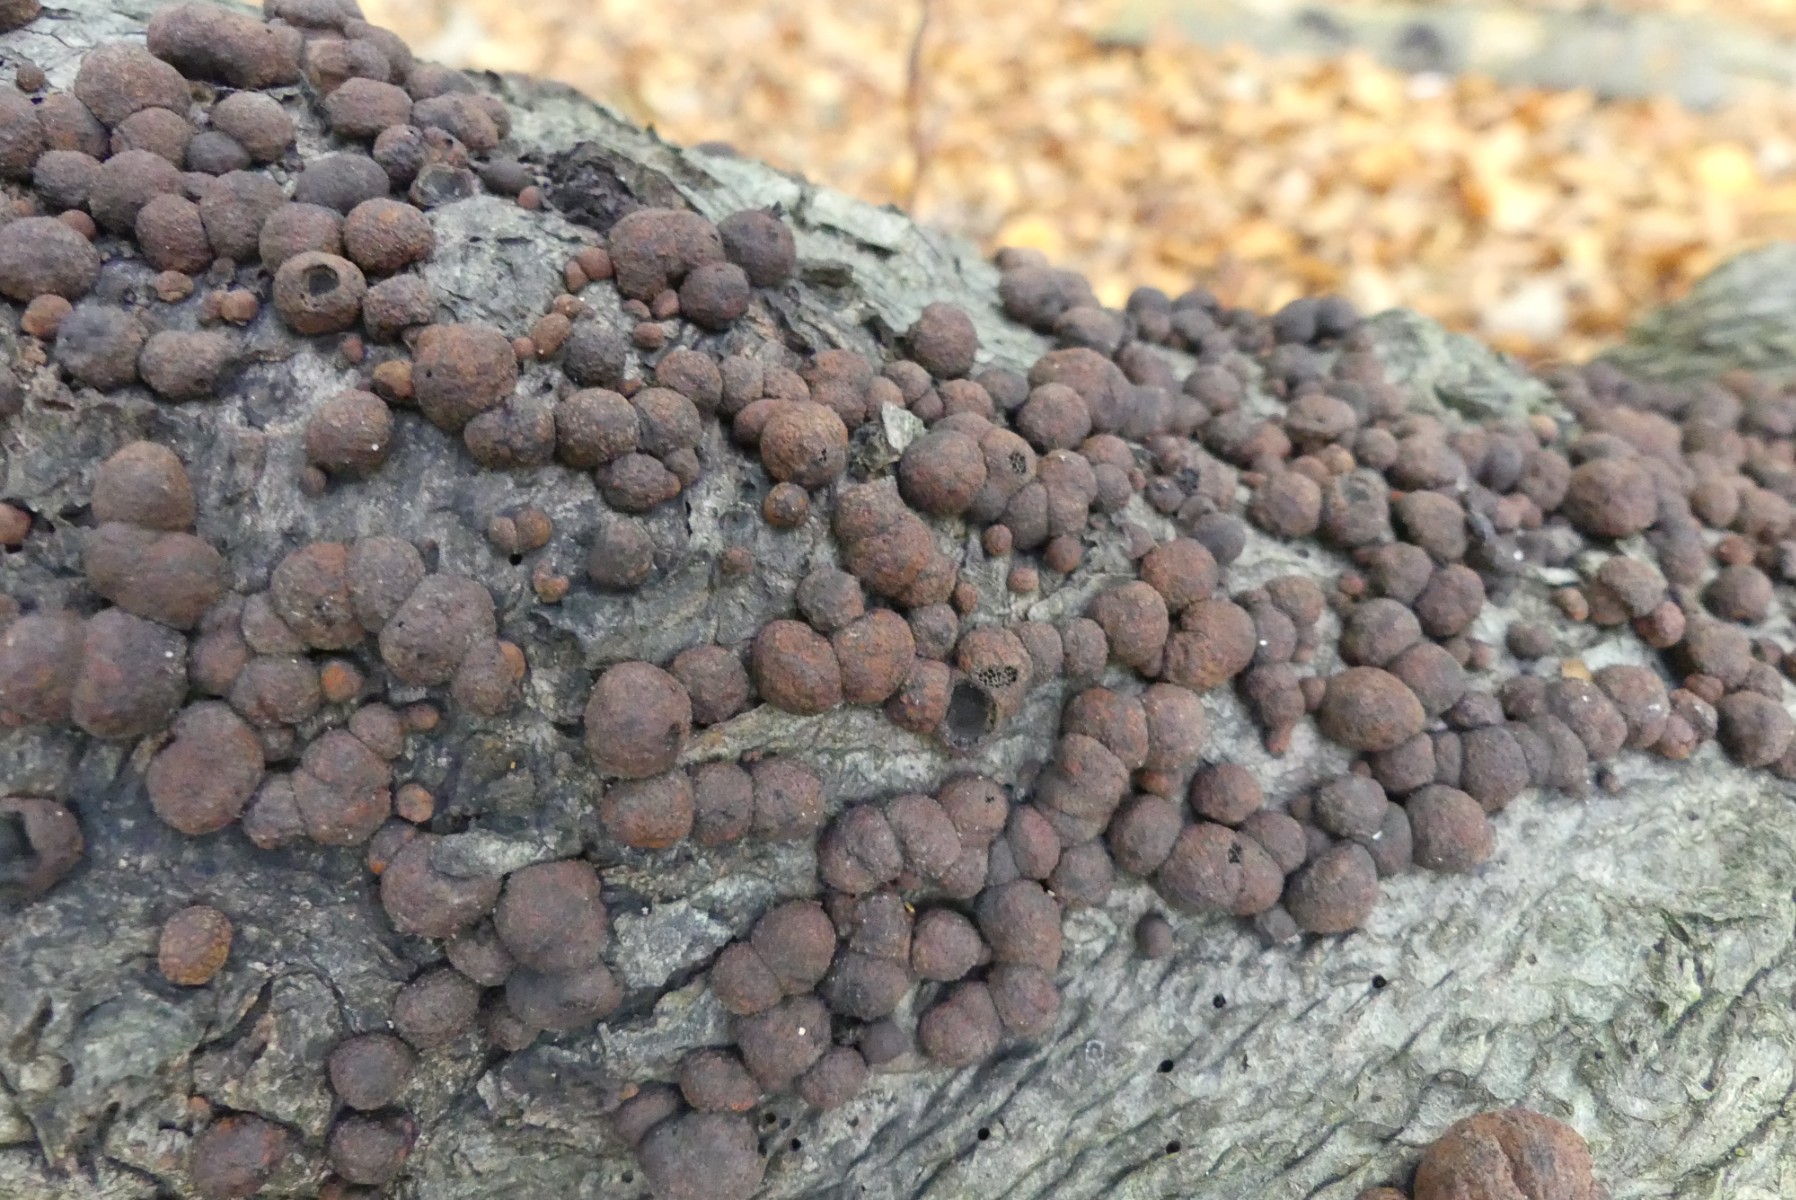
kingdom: Fungi
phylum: Ascomycota
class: Sordariomycetes
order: Xylariales
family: Hypoxylaceae
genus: Hypoxylon
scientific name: Hypoxylon fragiforme
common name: kuljordbær
